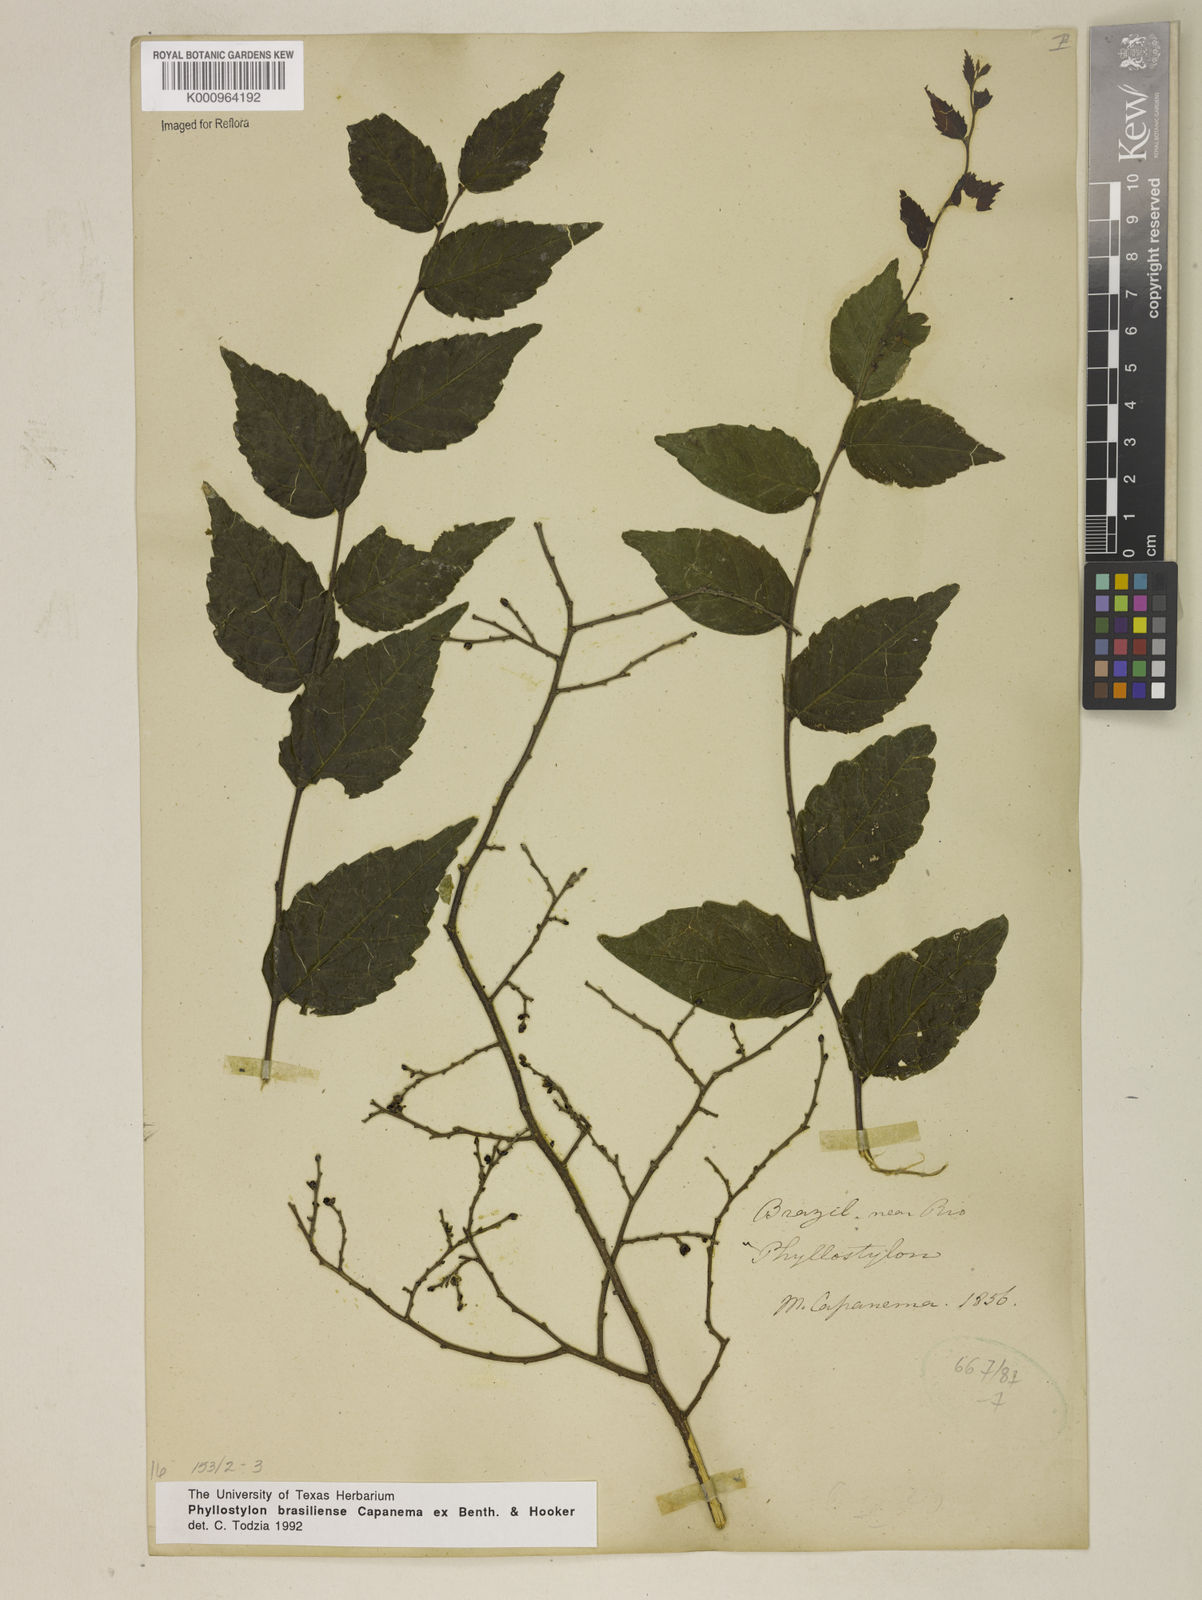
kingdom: Plantae
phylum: Tracheophyta
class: Magnoliopsida
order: Rosales
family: Ulmaceae
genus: Phyllostylon
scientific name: Phyllostylon brasiliensis
